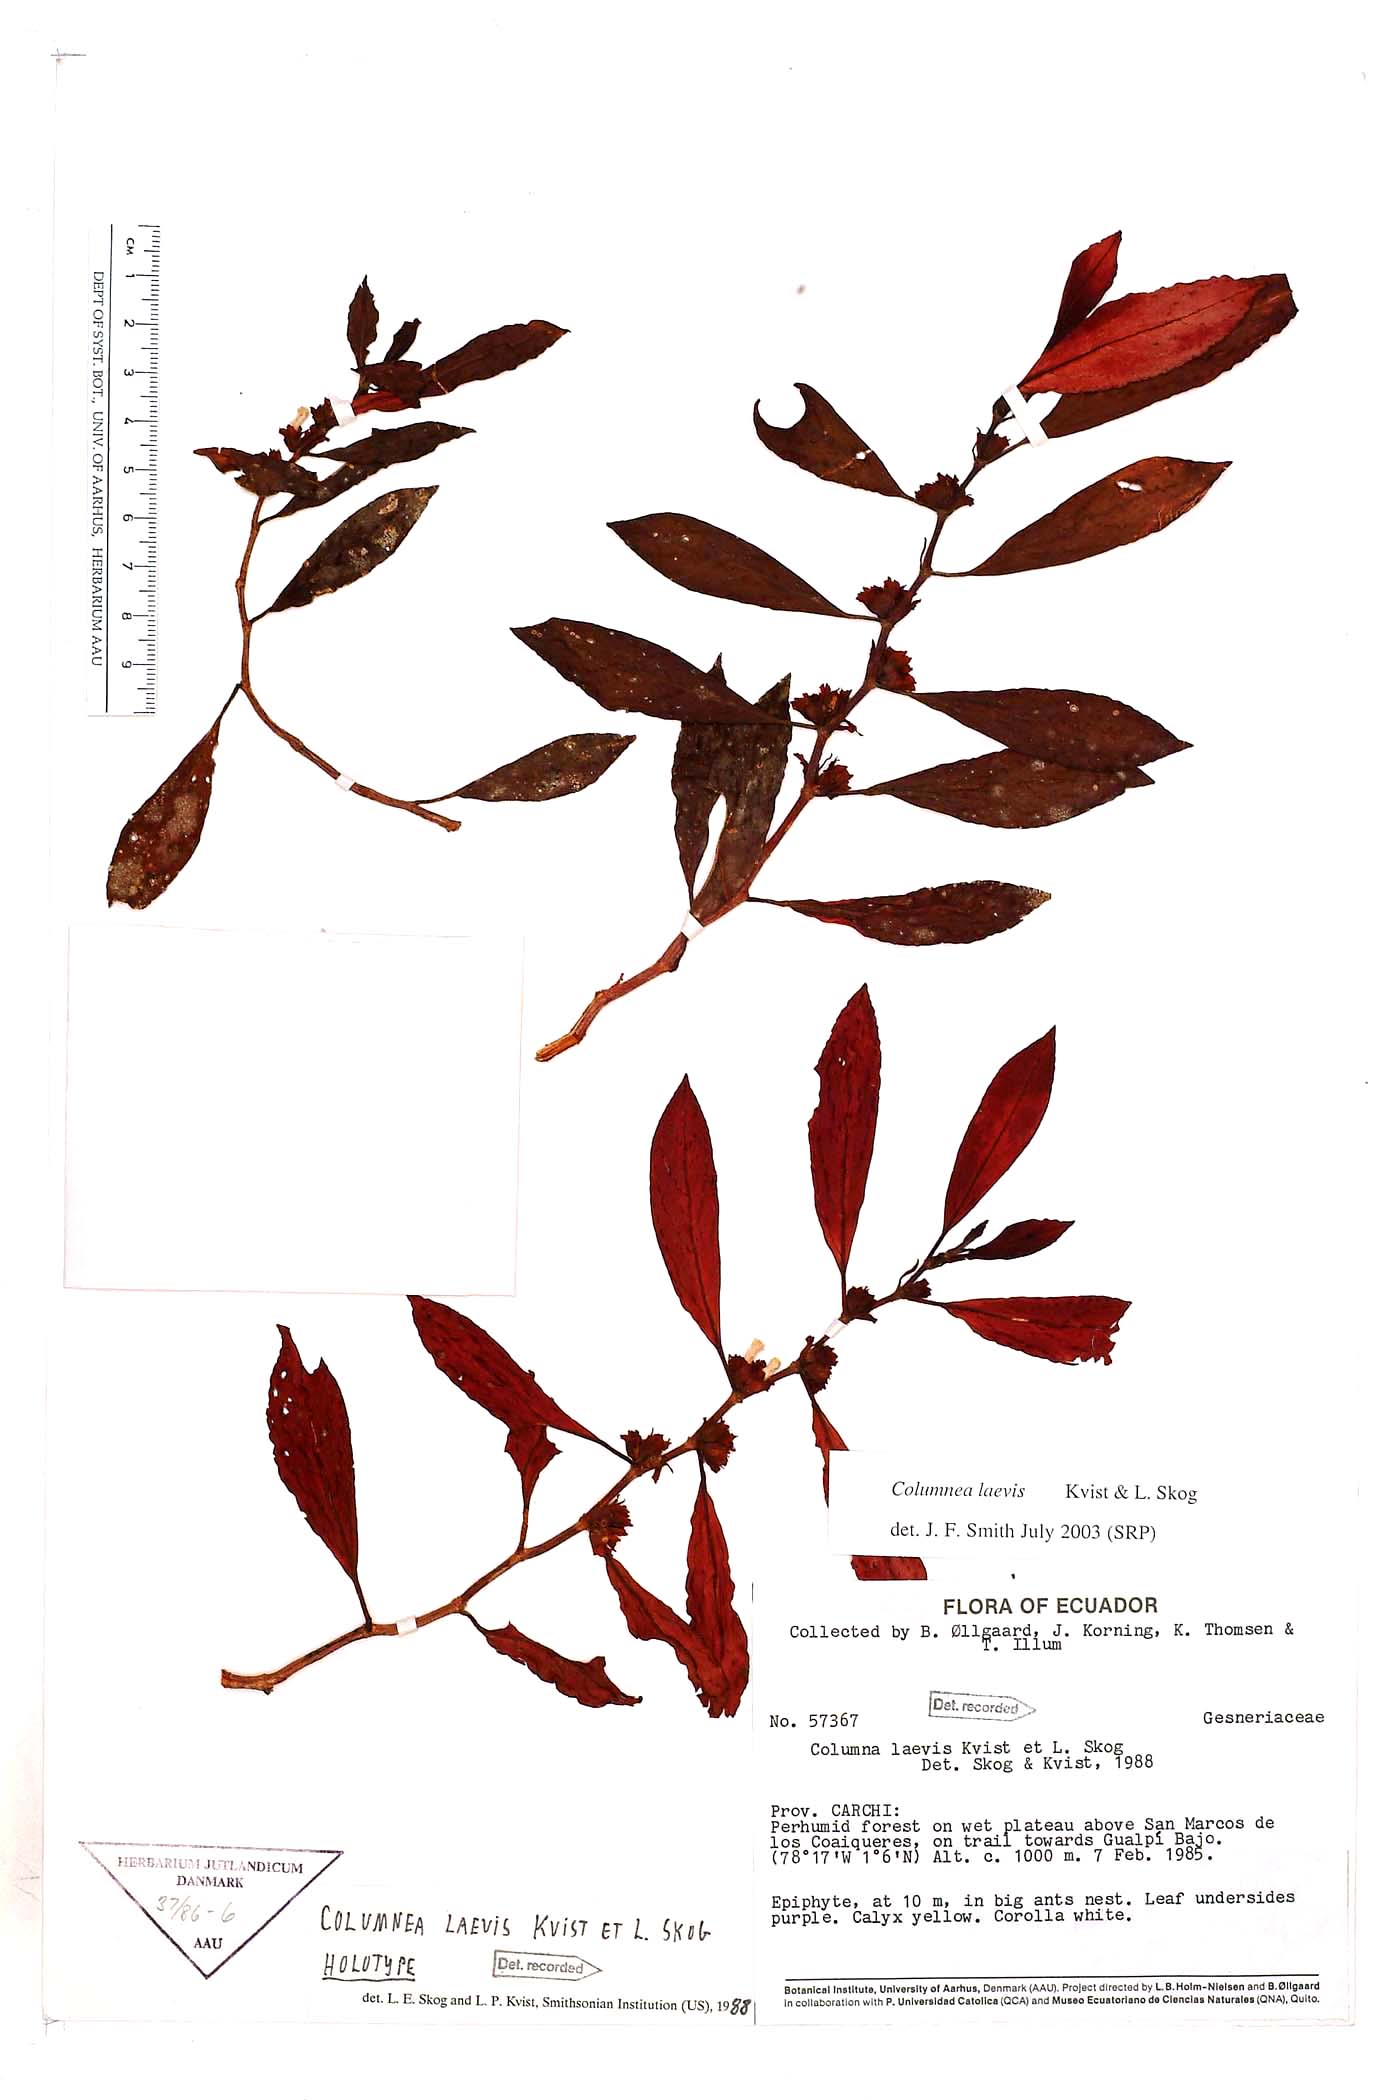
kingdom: Plantae
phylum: Tracheophyta
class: Magnoliopsida
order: Lamiales
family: Gesneriaceae
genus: Columnea
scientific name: Columnea laevis
